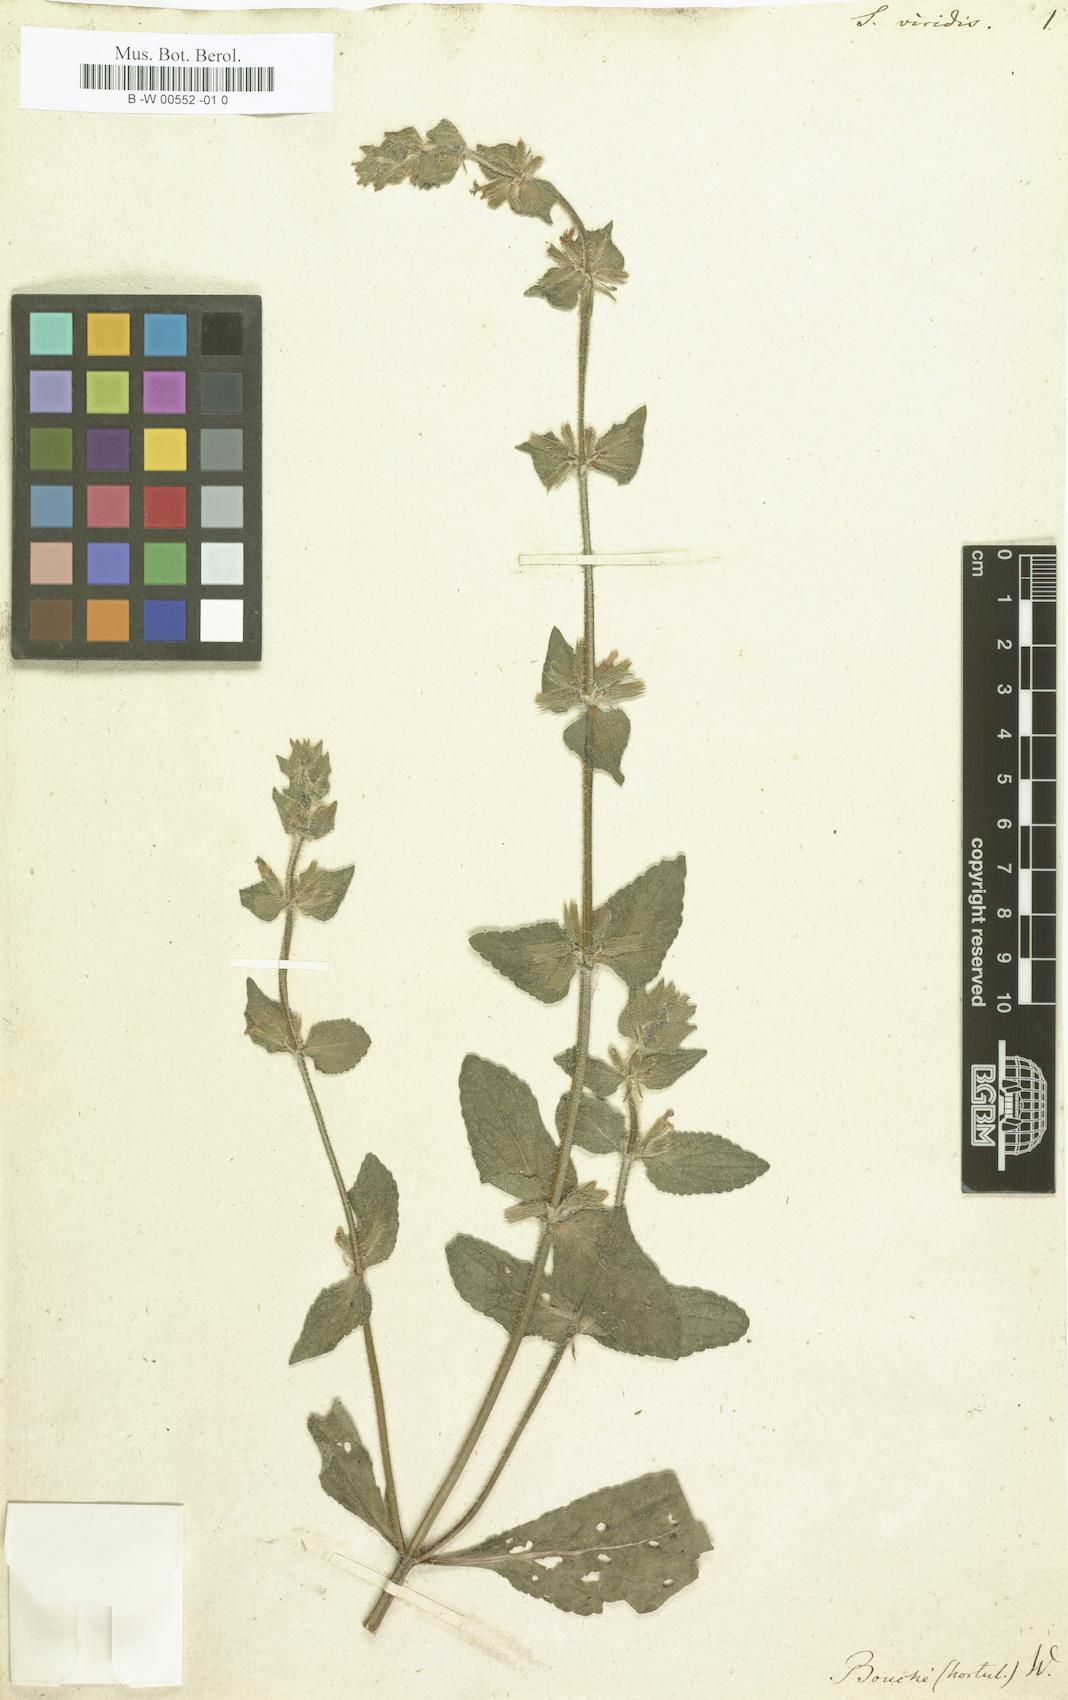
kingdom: Plantae
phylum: Tracheophyta
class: Magnoliopsida
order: Lamiales
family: Lamiaceae
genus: Salvia
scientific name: Salvia viridis
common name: Annual clary
